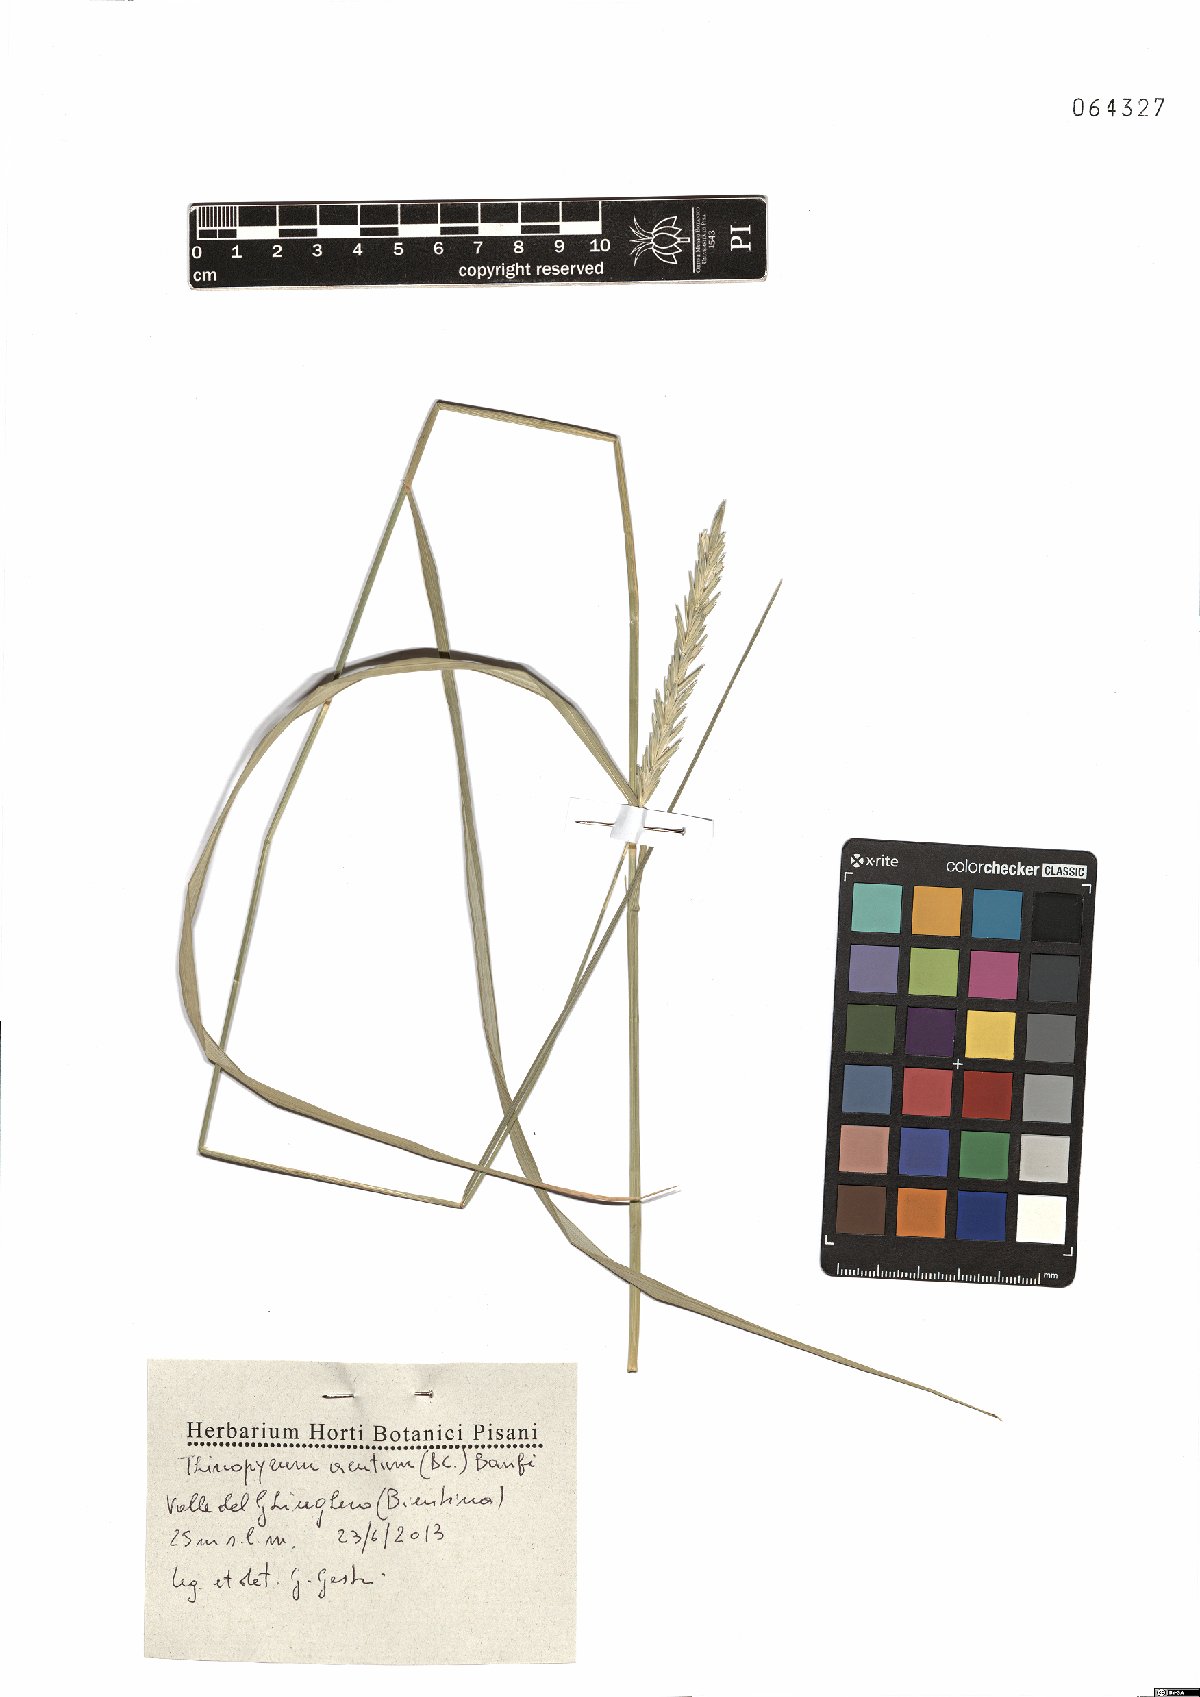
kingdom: Plantae
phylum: Tracheophyta
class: Liliopsida
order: Poales
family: Poaceae
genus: Thinopyrum
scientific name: Thinopyrum acutum
